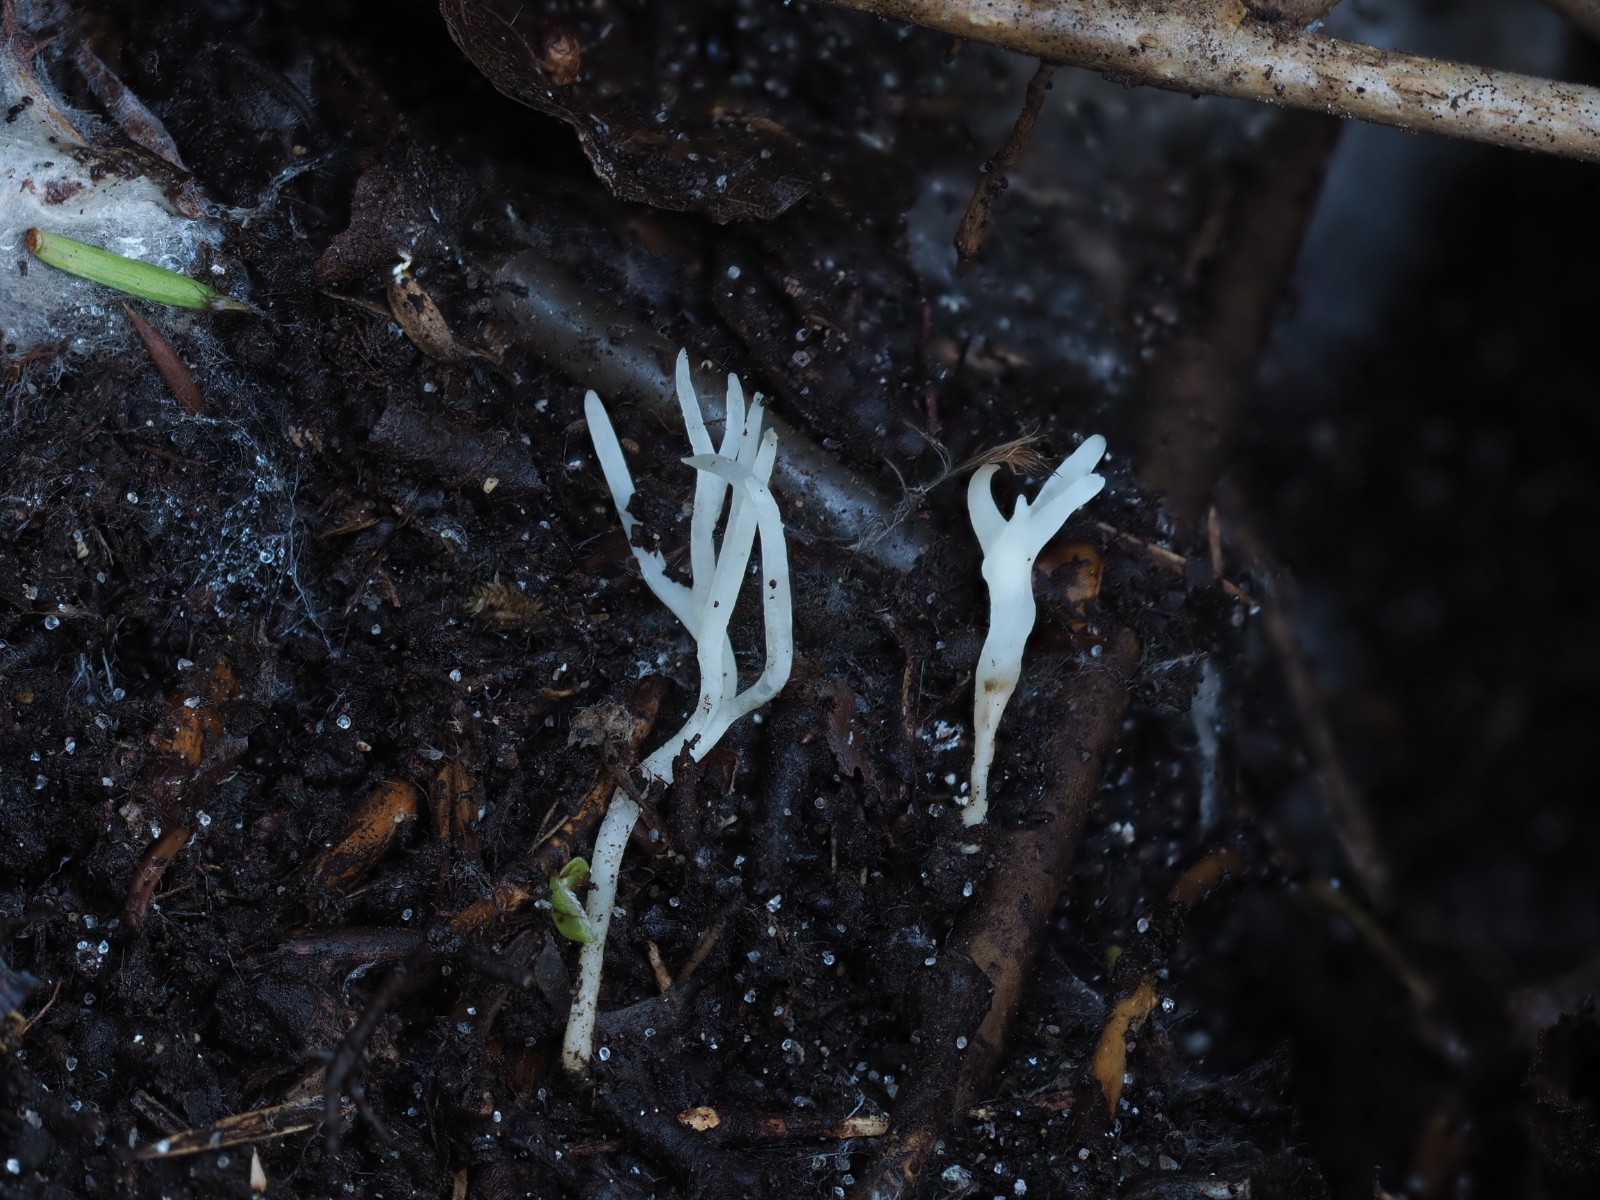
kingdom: Fungi
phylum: Basidiomycota
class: Agaricomycetes
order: Agaricales
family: Clavariaceae
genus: Ramariopsis
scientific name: Ramariopsis kunzei
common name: mangegrenet køllesvamp
